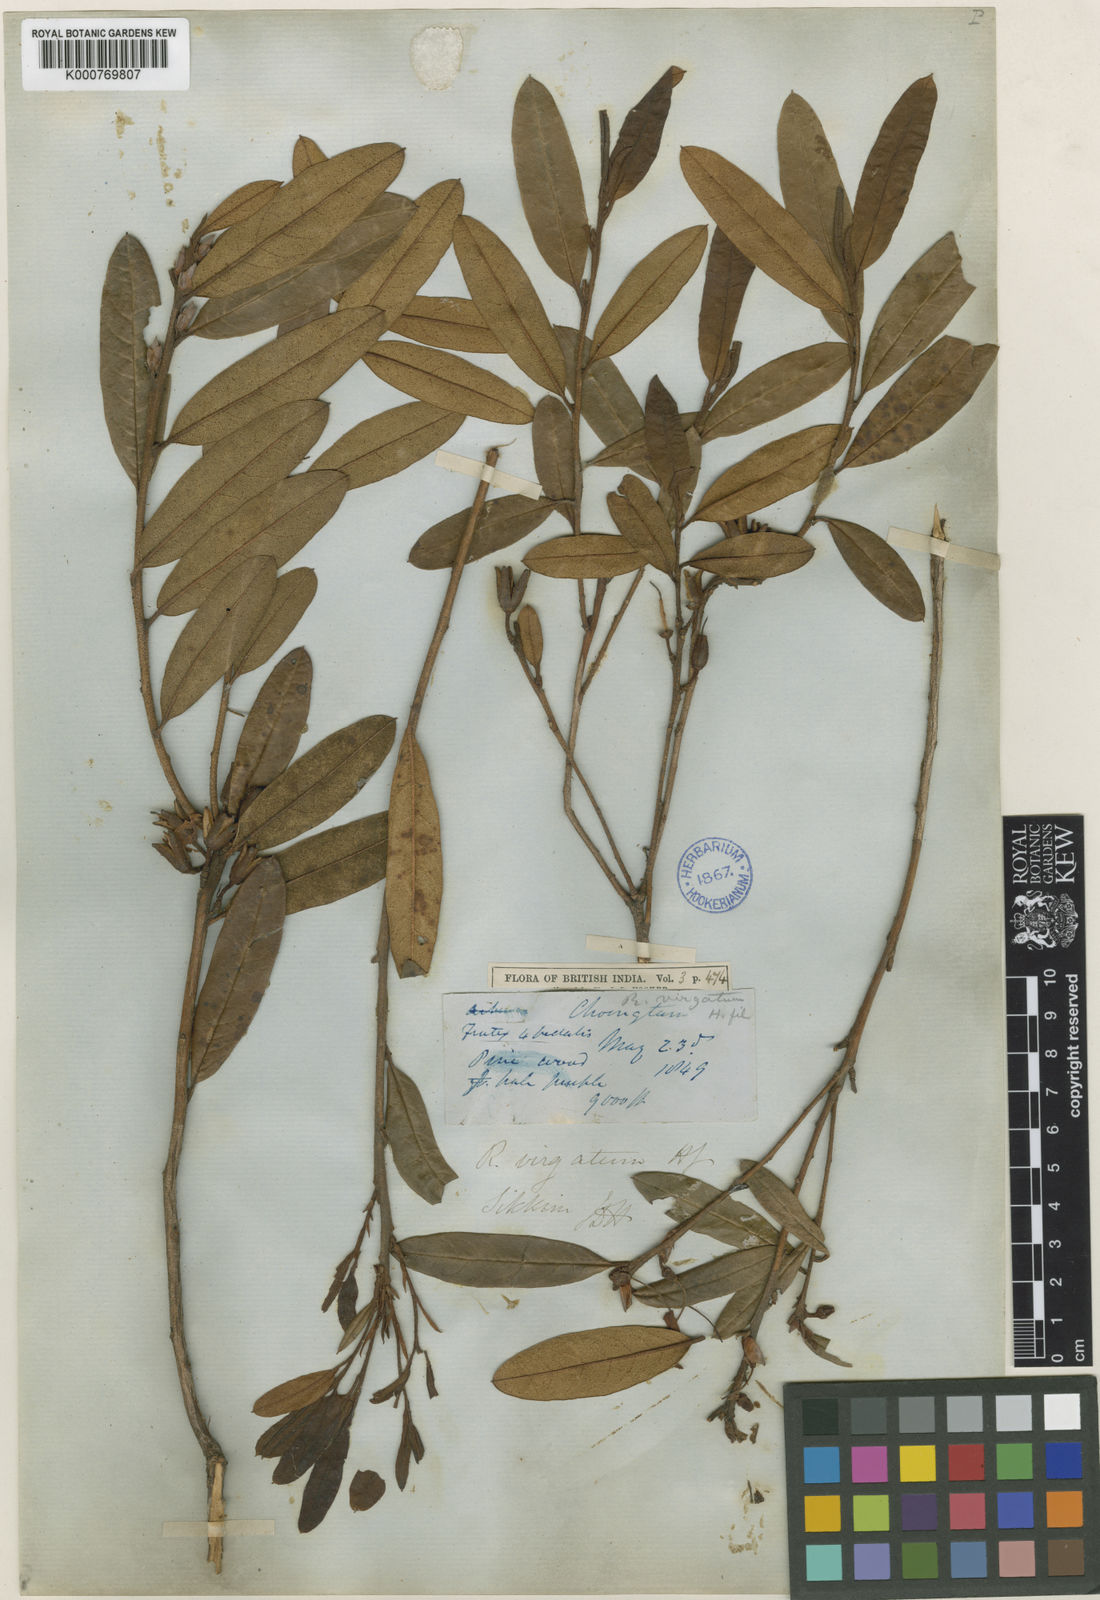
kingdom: Plantae
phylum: Tracheophyta
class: Magnoliopsida
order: Ericales
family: Ericaceae
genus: Rhododendron
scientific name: Rhododendron virgatum
